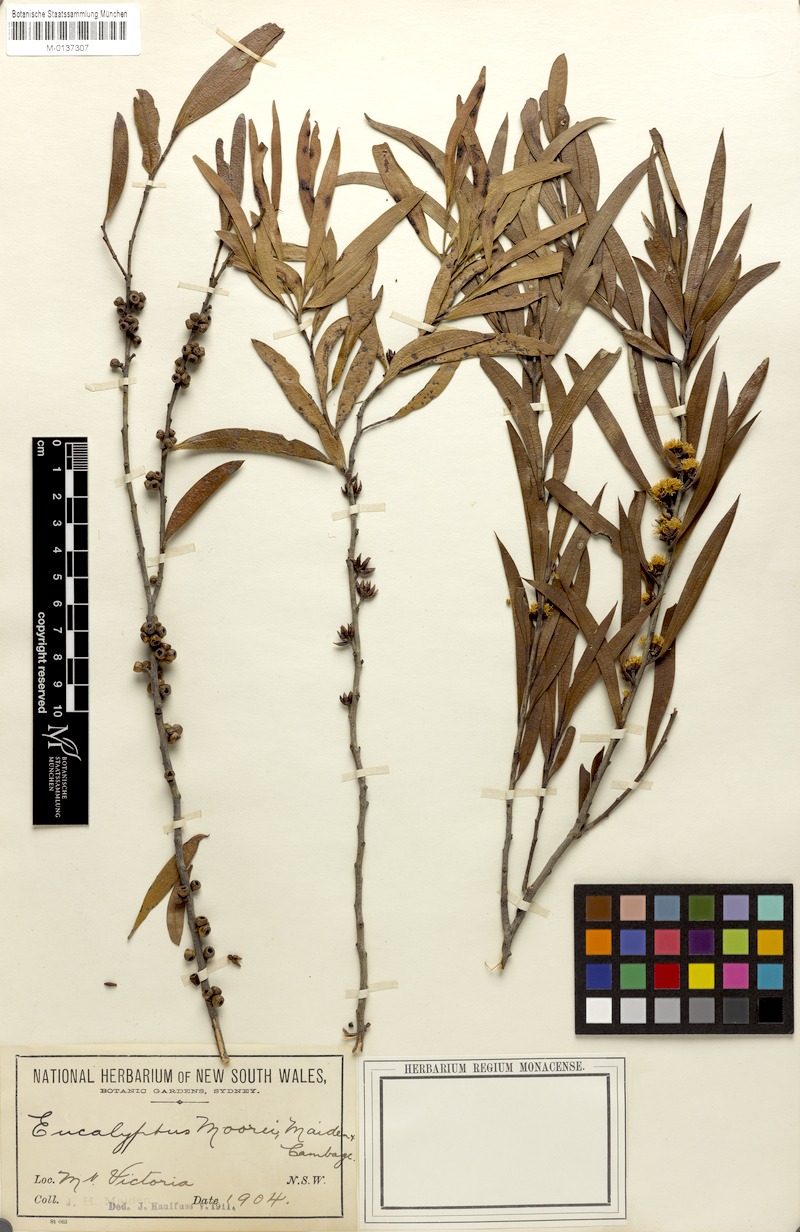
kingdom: Plantae
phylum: Tracheophyta
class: Magnoliopsida
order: Myrtales
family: Myrtaceae
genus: Eucalyptus
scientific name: Eucalyptus moorei
